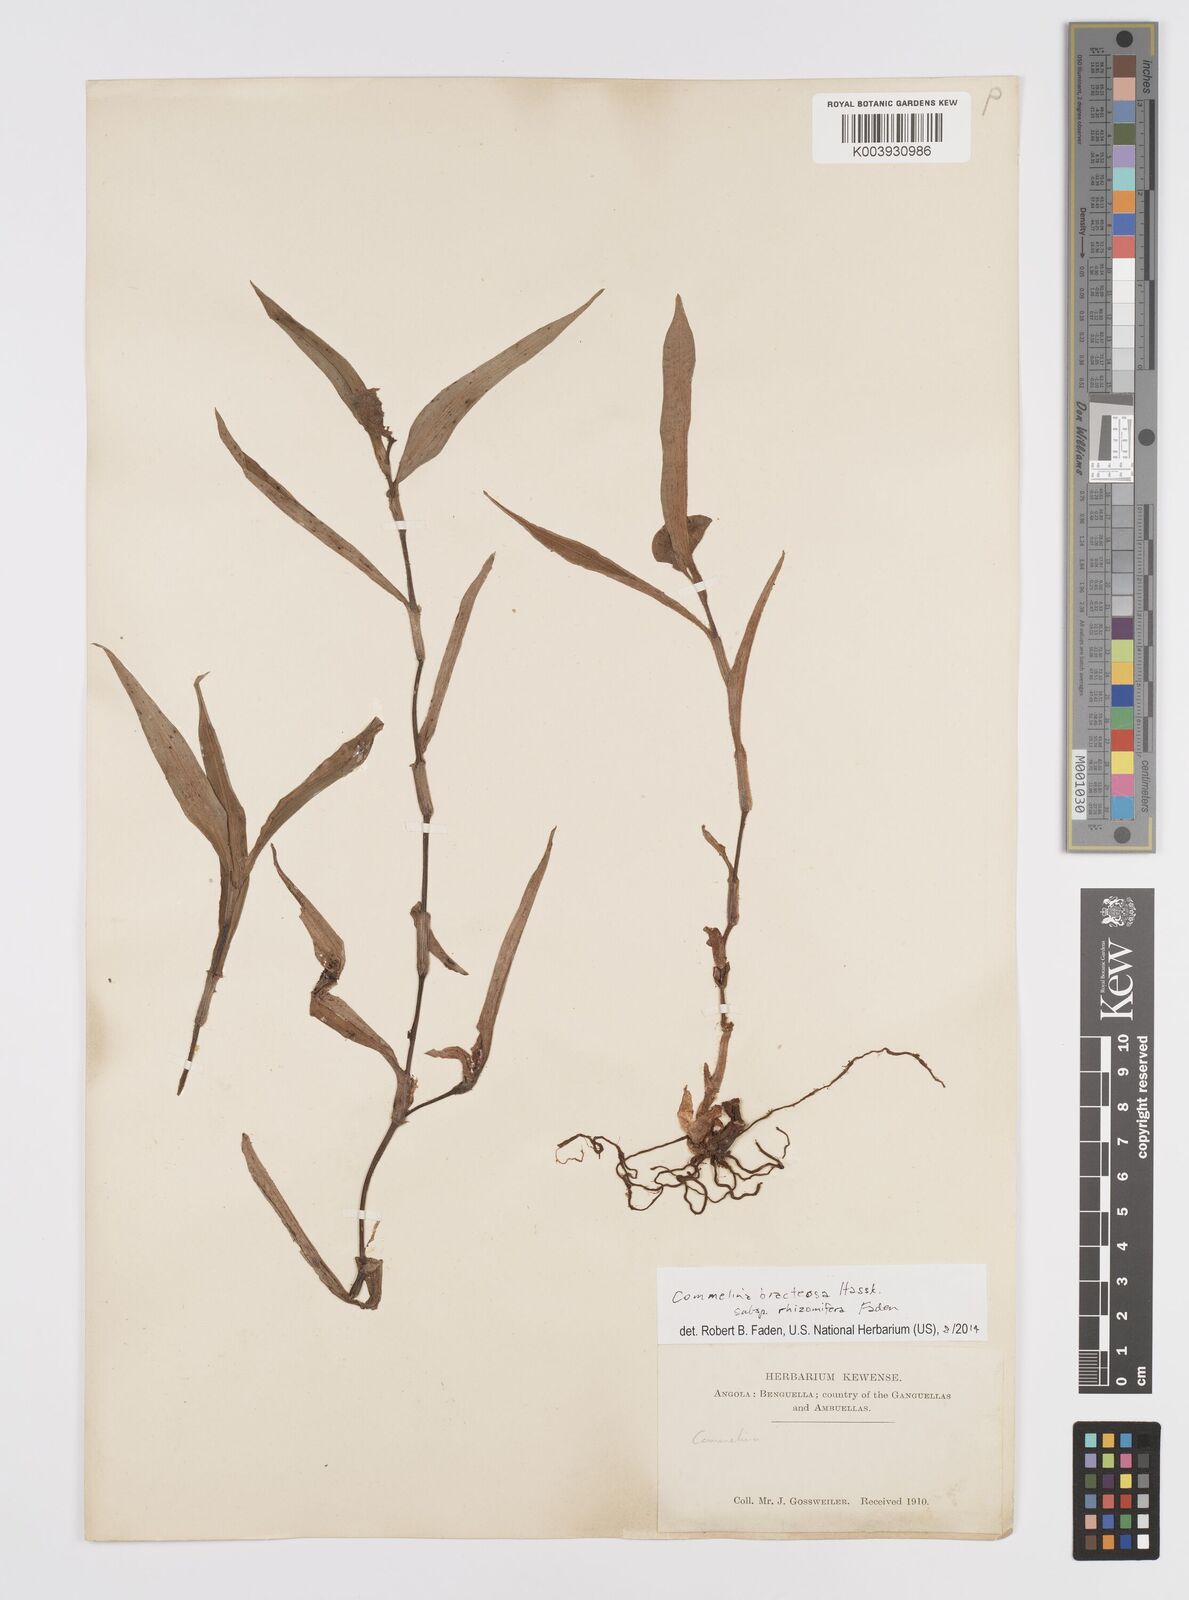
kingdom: Plantae
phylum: Tracheophyta
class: Liliopsida
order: Commelinales
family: Commelinaceae
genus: Commelina
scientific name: Commelina bracteosa
